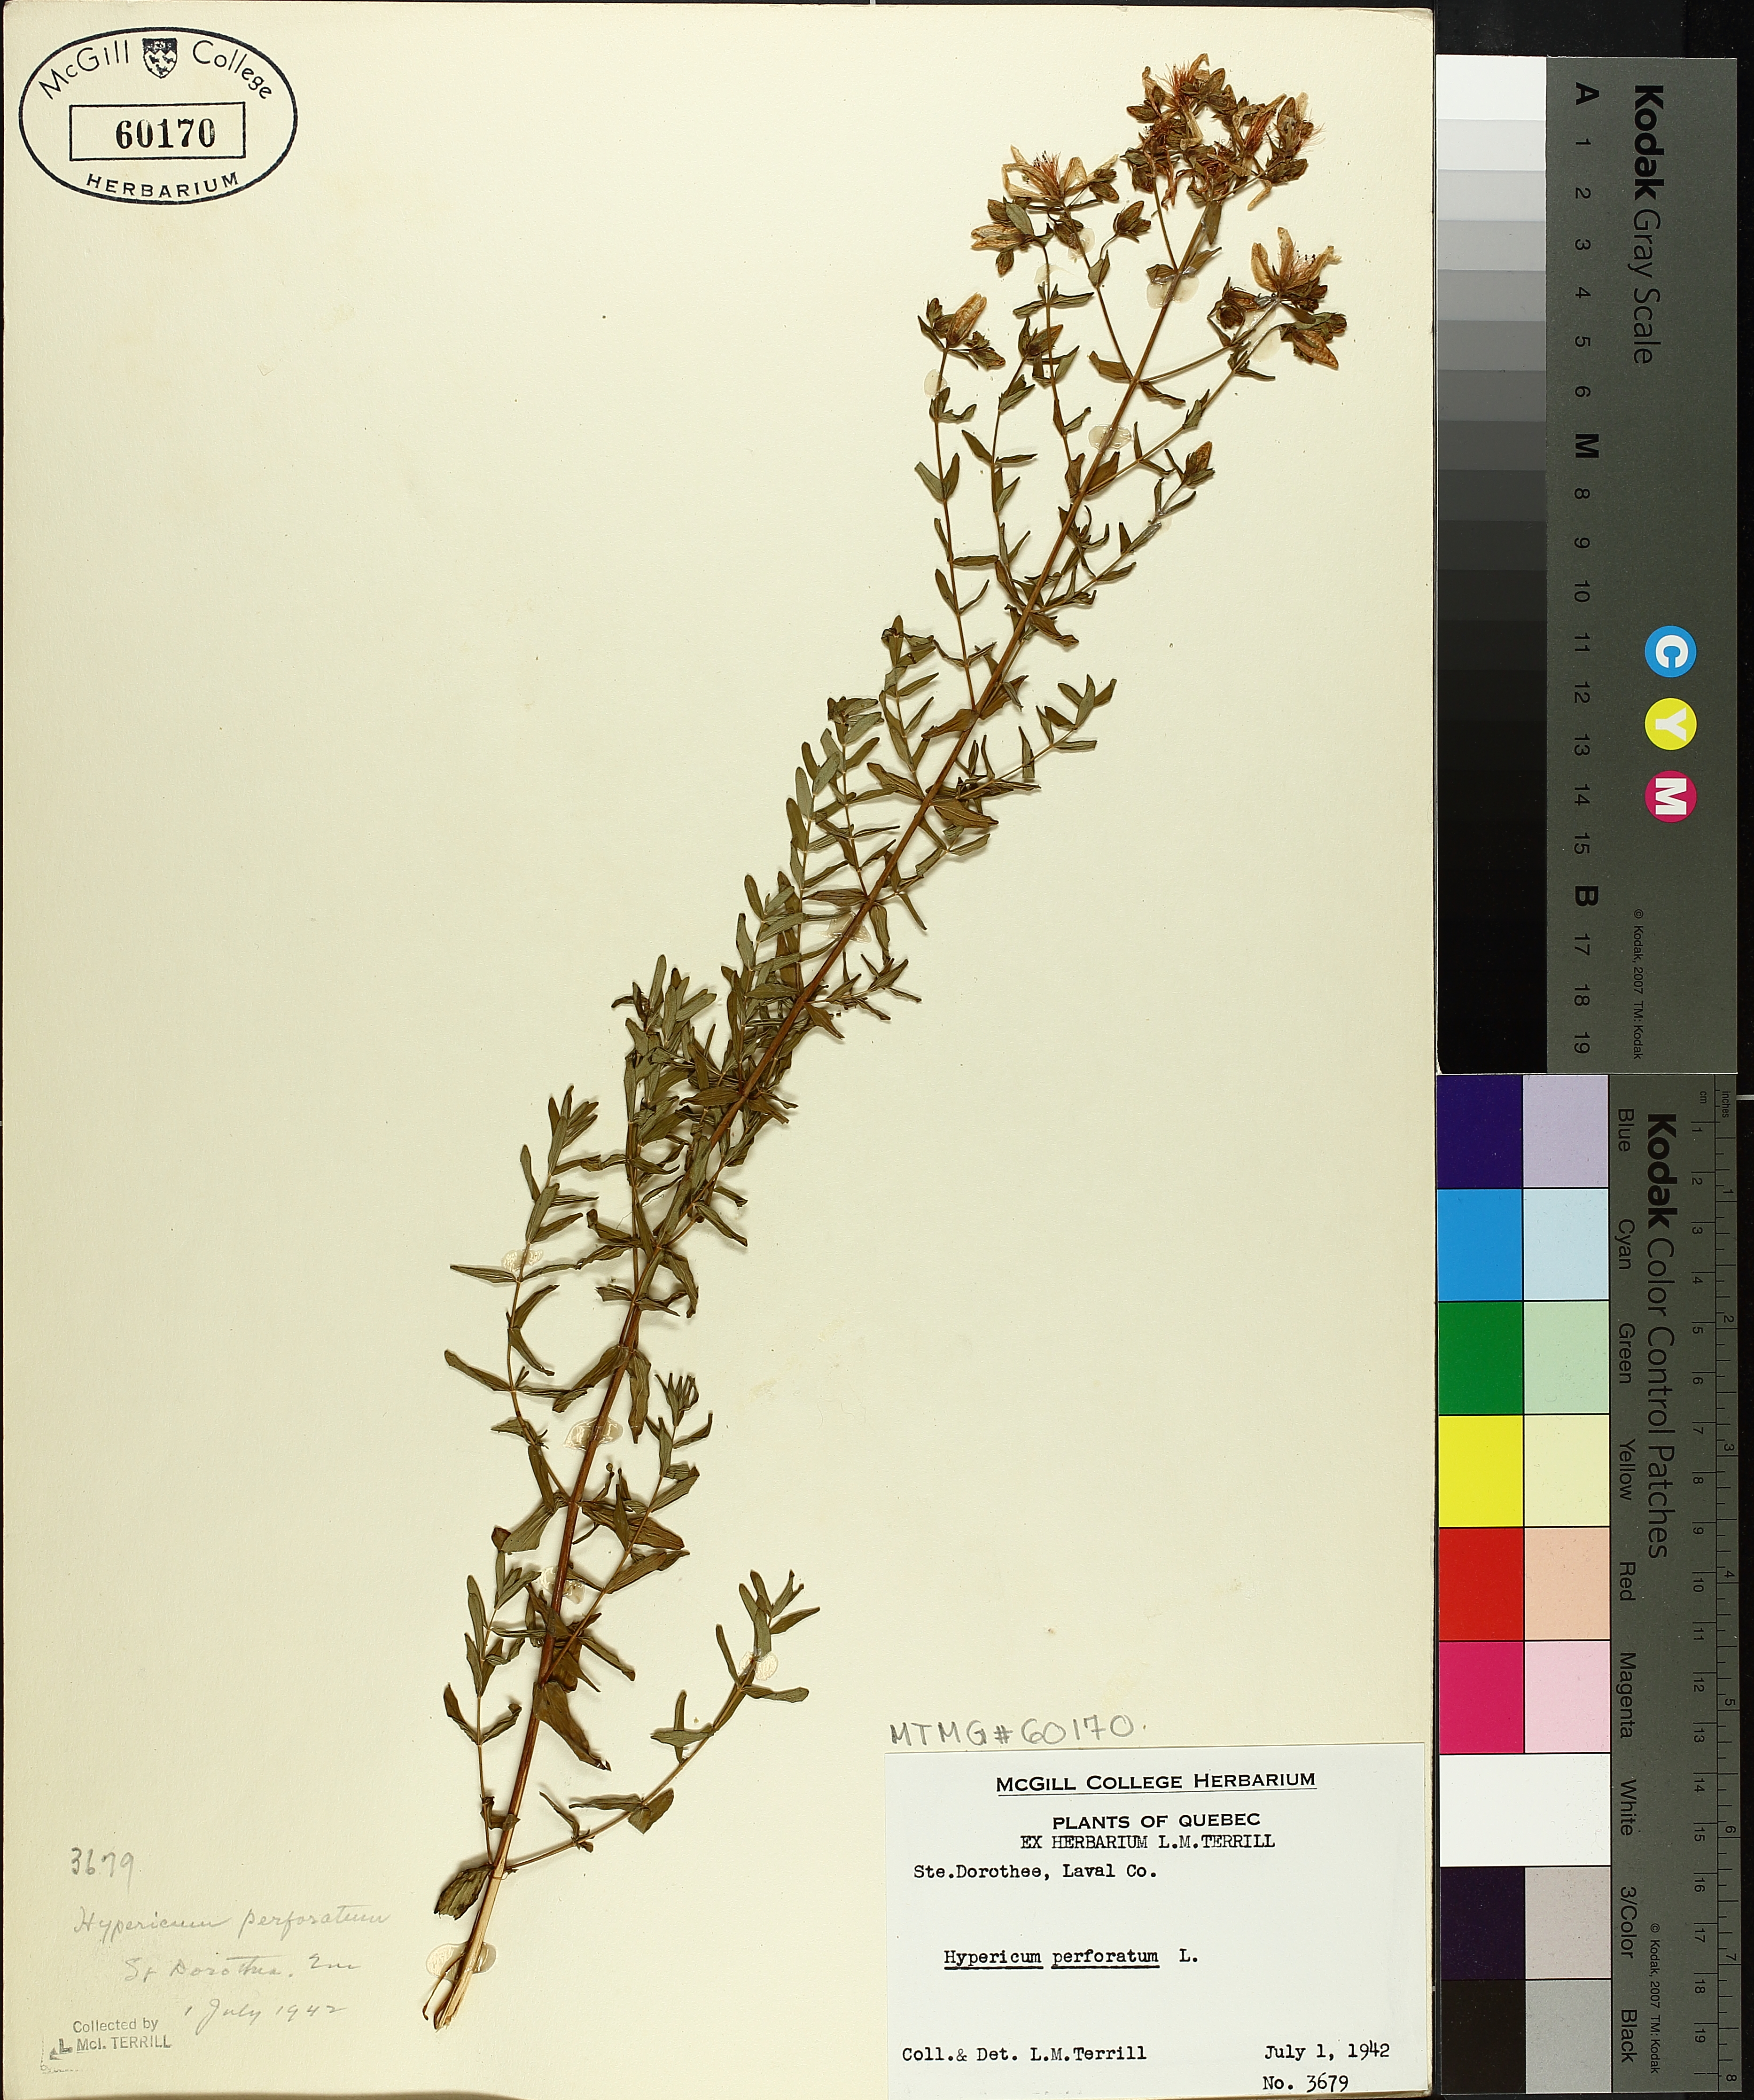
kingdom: Plantae
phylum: Tracheophyta
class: Magnoliopsida
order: Malpighiales
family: Hypericaceae
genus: Hypericum
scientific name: Hypericum perforatum
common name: Common st. johnswort
